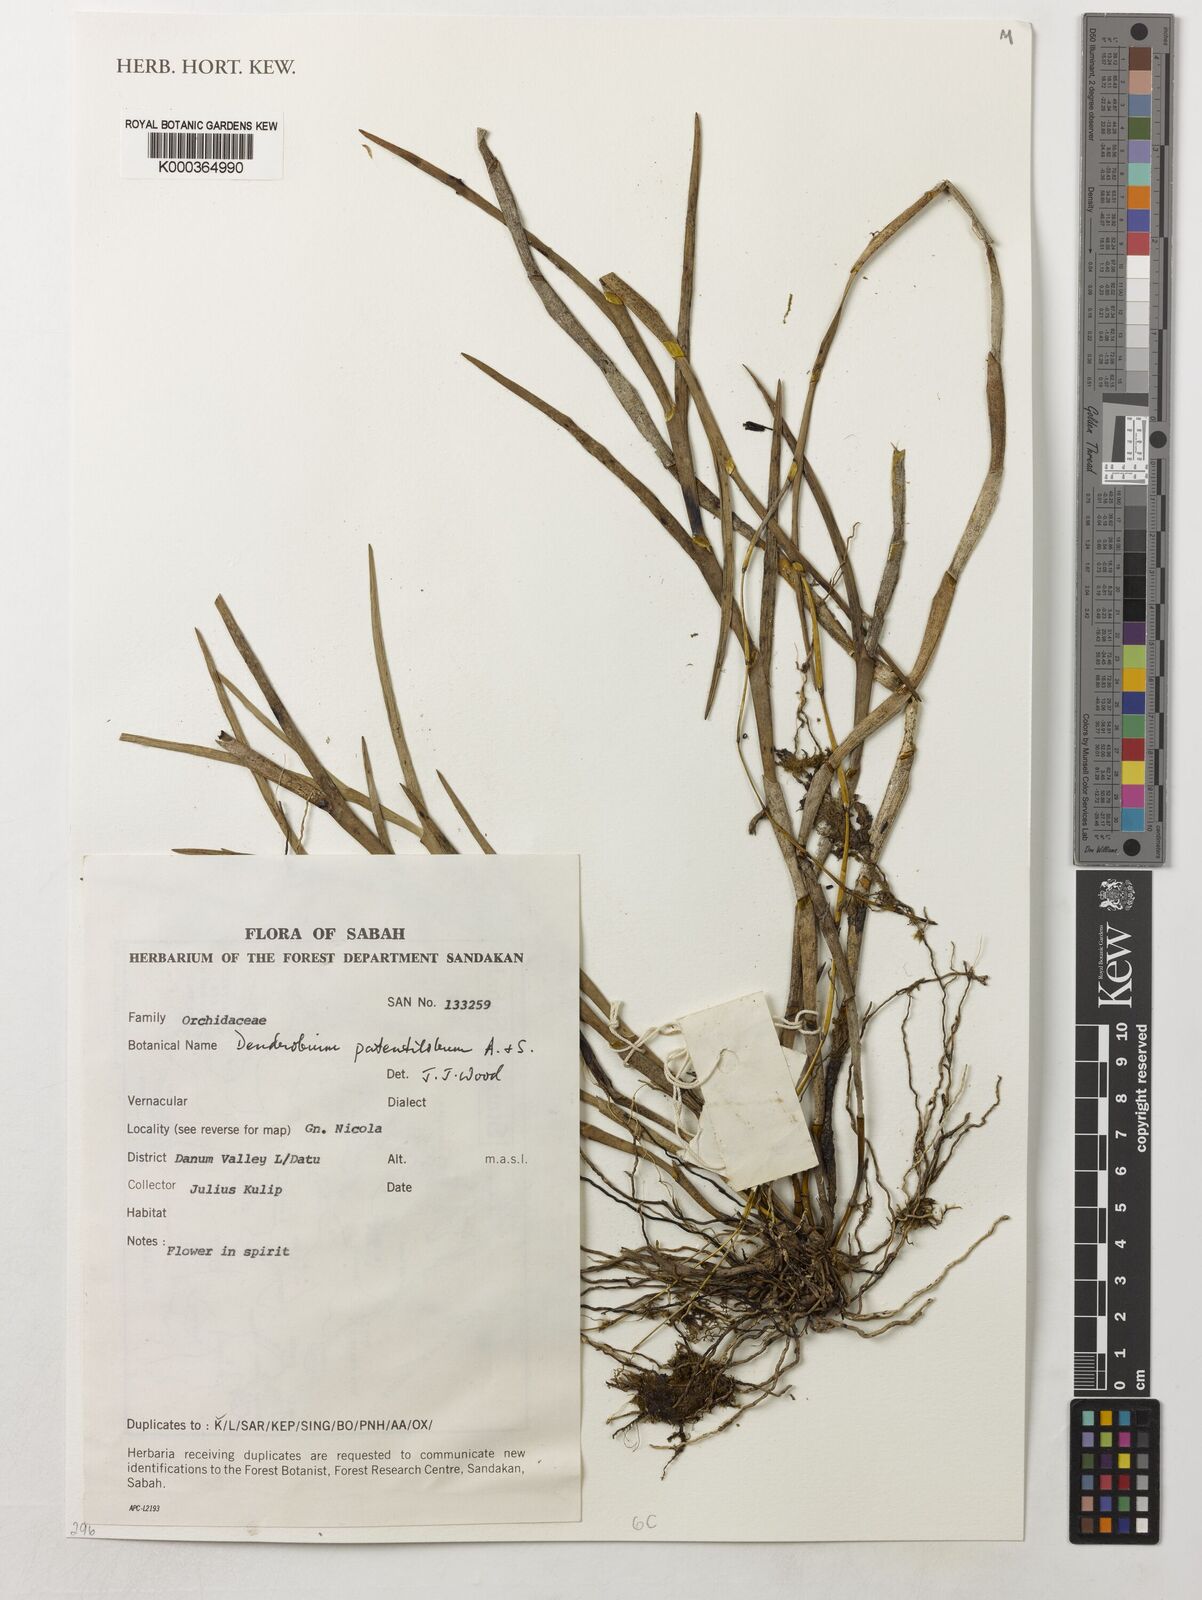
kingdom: Plantae
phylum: Tracheophyta
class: Liliopsida
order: Asparagales
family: Orchidaceae
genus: Dendrobium
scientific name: Dendrobium patentilobum
